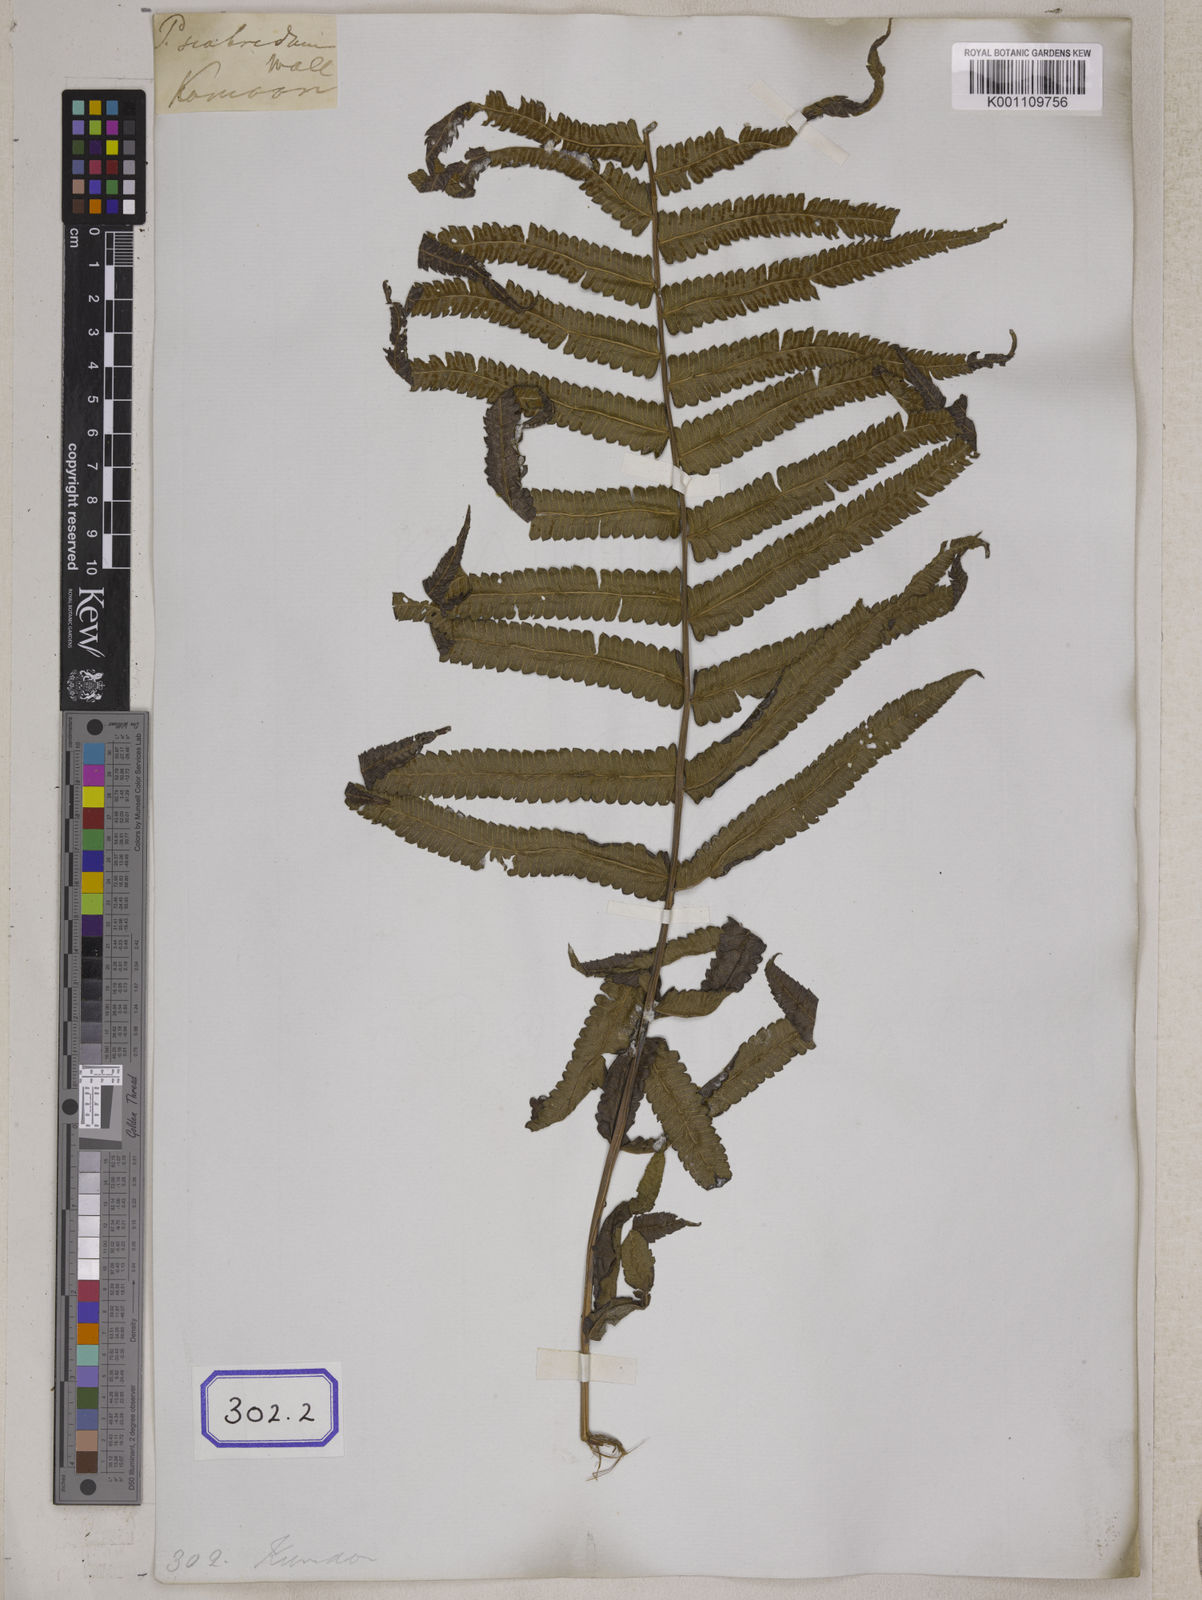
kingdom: Plantae
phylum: Tracheophyta
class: Polypodiopsida
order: Polypodiales
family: Thelypteridaceae
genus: Christella
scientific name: Christella arida
